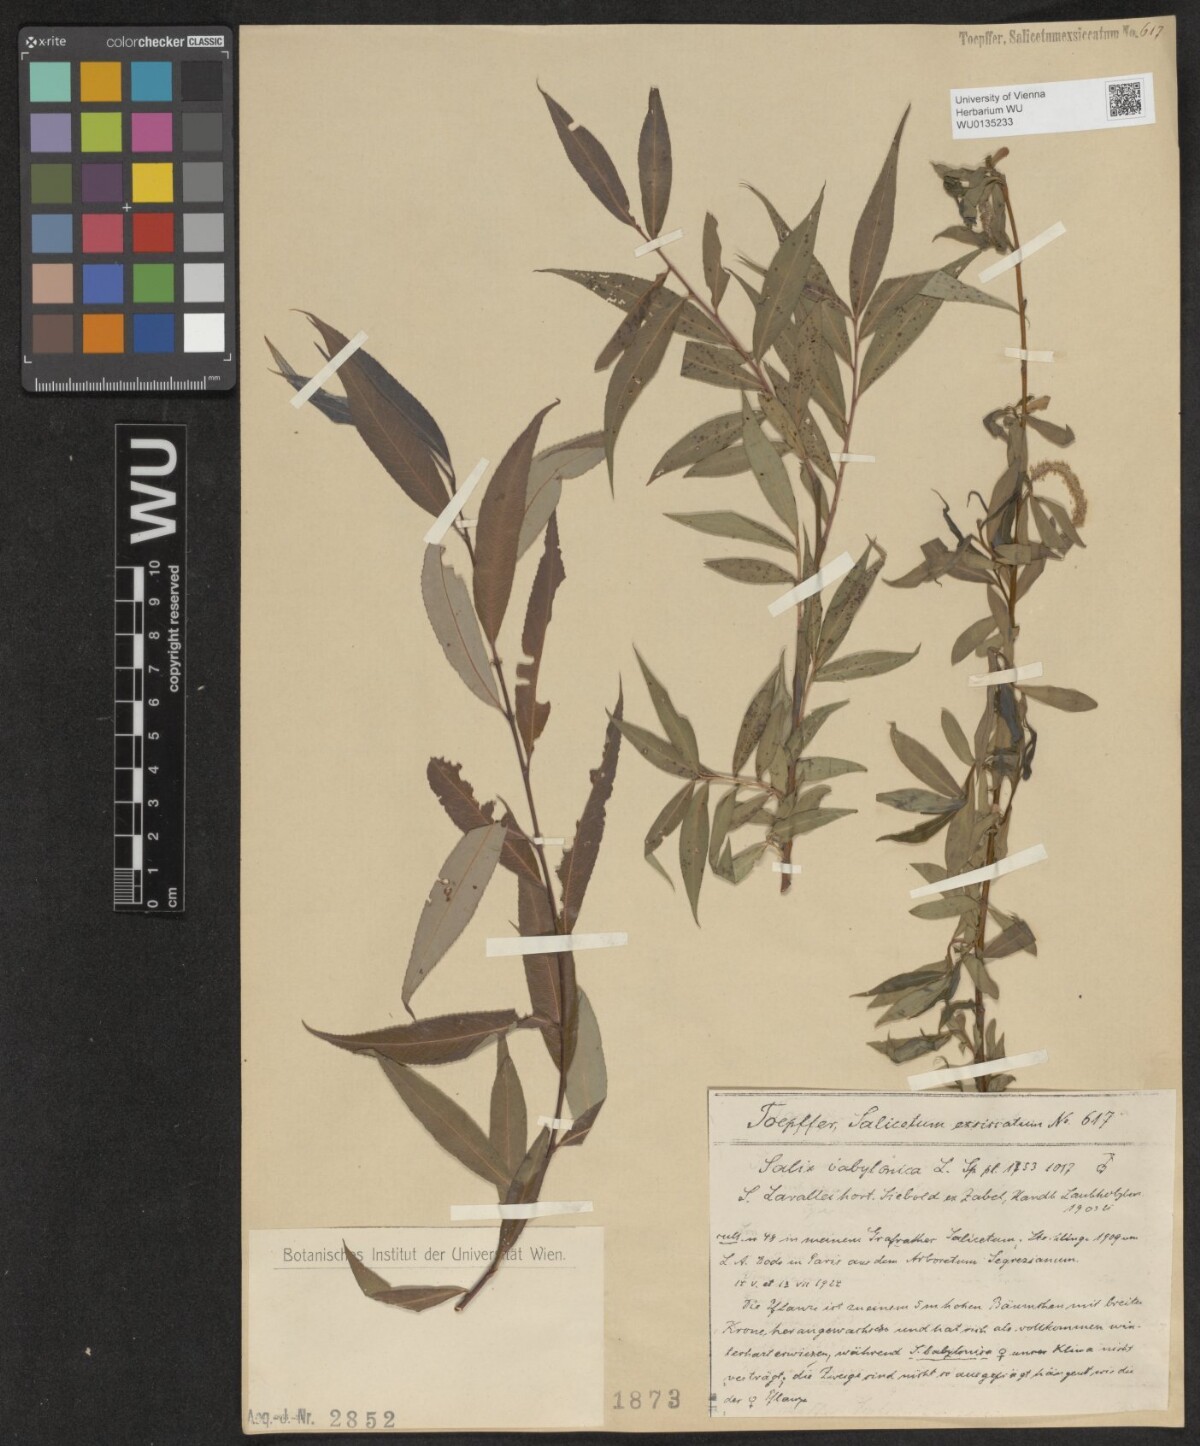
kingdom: Plantae
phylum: Tracheophyta
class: Magnoliopsida
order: Malpighiales
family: Salicaceae
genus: Salix
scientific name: Salix babylonica
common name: Weeping willow
